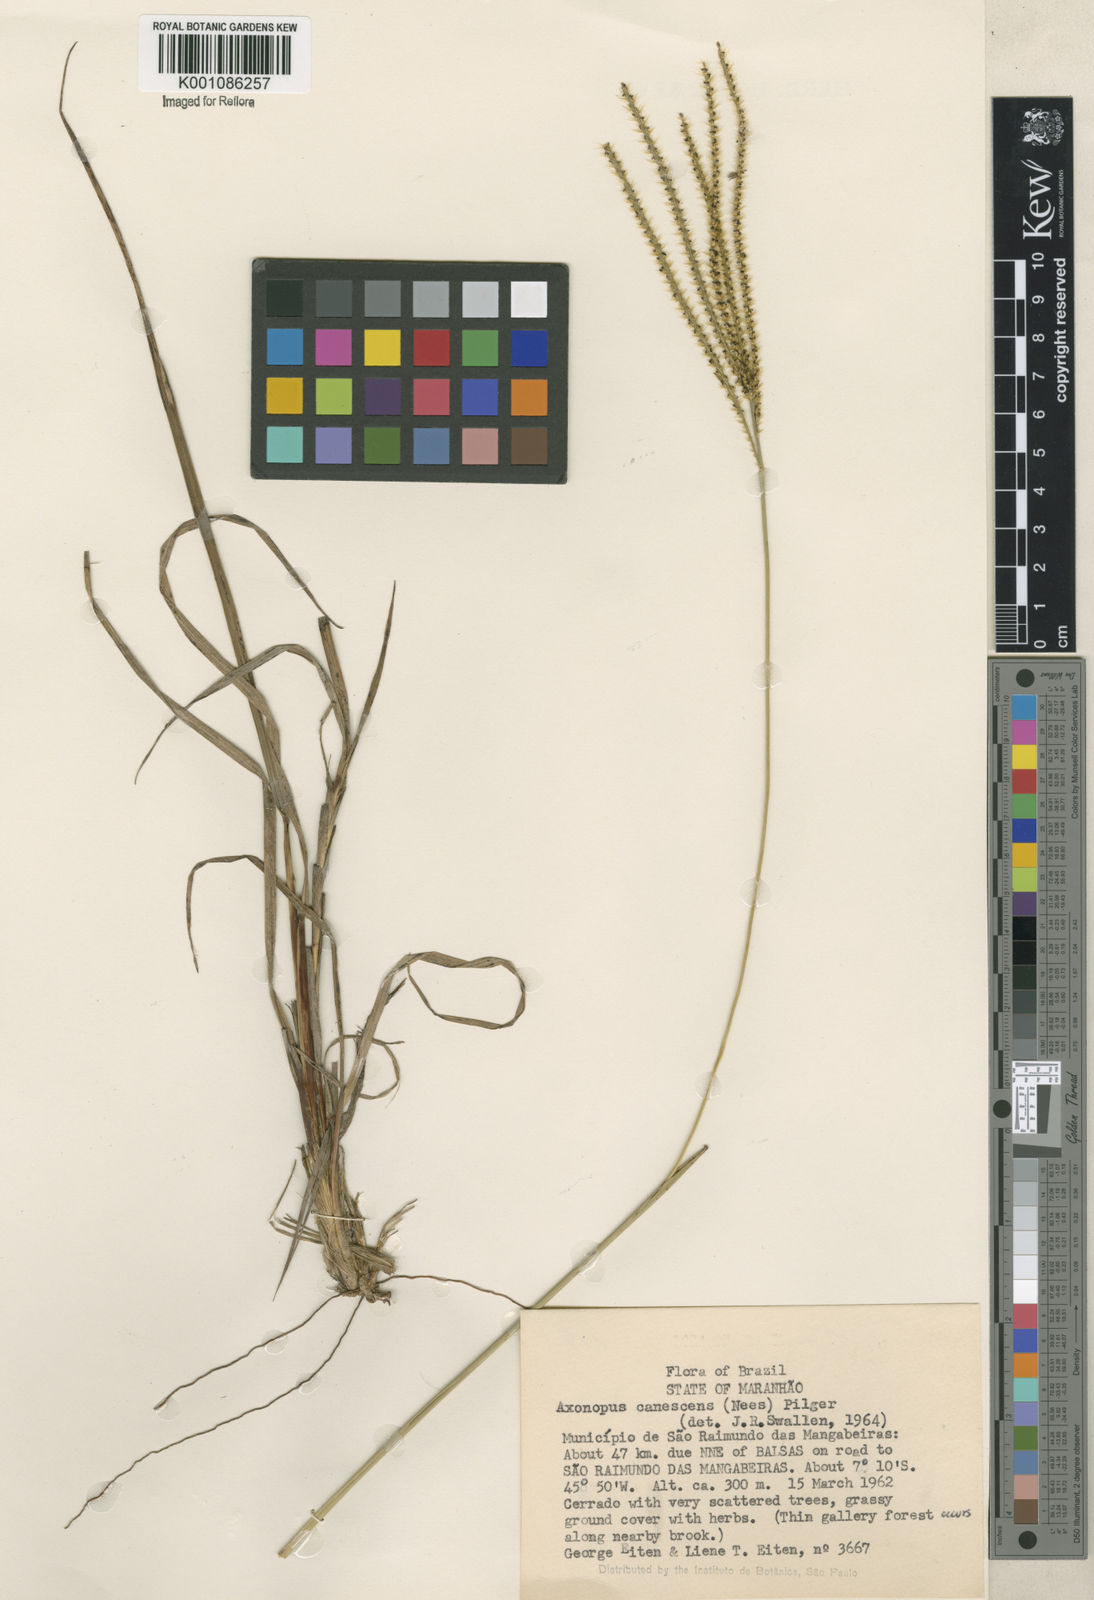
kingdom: Plantae
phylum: Tracheophyta
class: Liliopsida
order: Poales
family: Poaceae
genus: Axonopus
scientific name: Axonopus aureus
